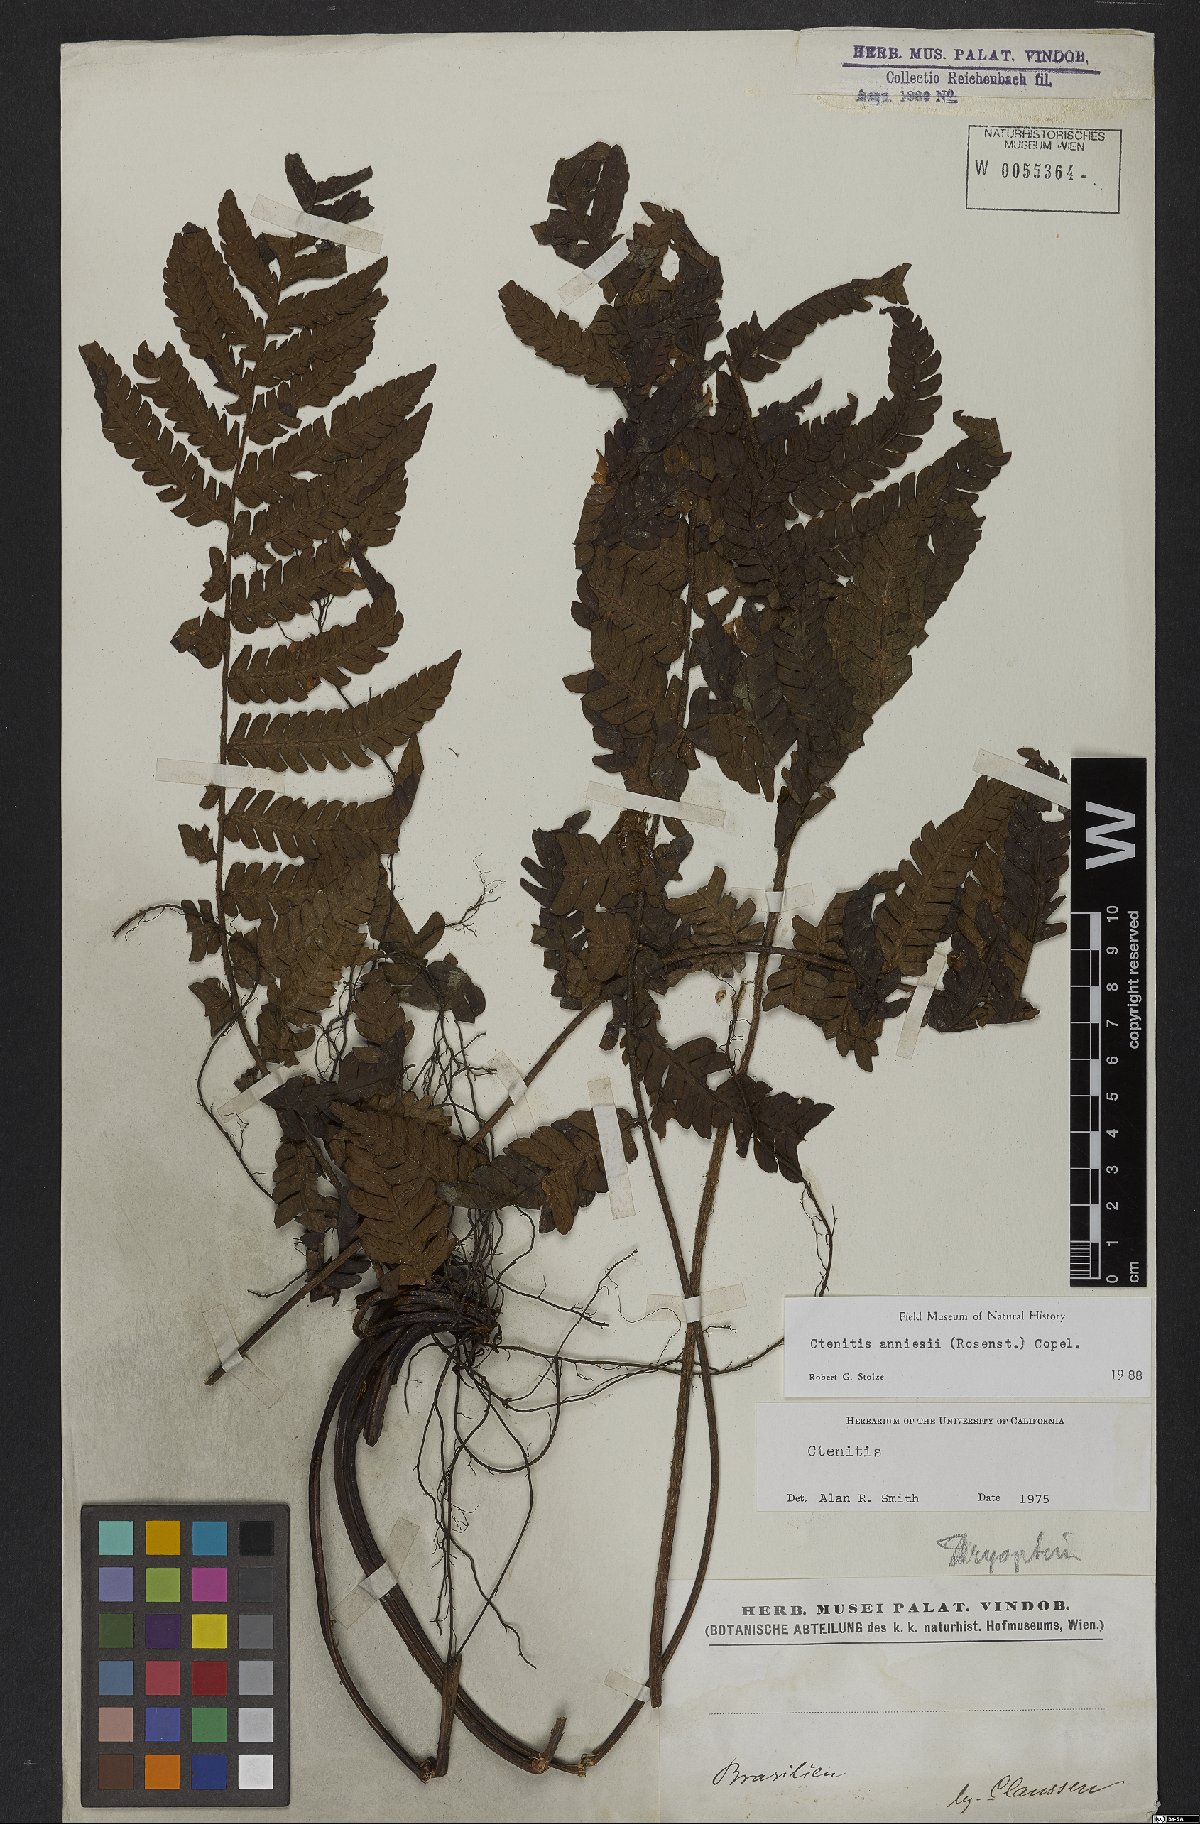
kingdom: Plantae
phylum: Tracheophyta
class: Polypodiopsida
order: Polypodiales
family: Dryopteridaceae
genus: Ctenitis
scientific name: Ctenitis anniesii
